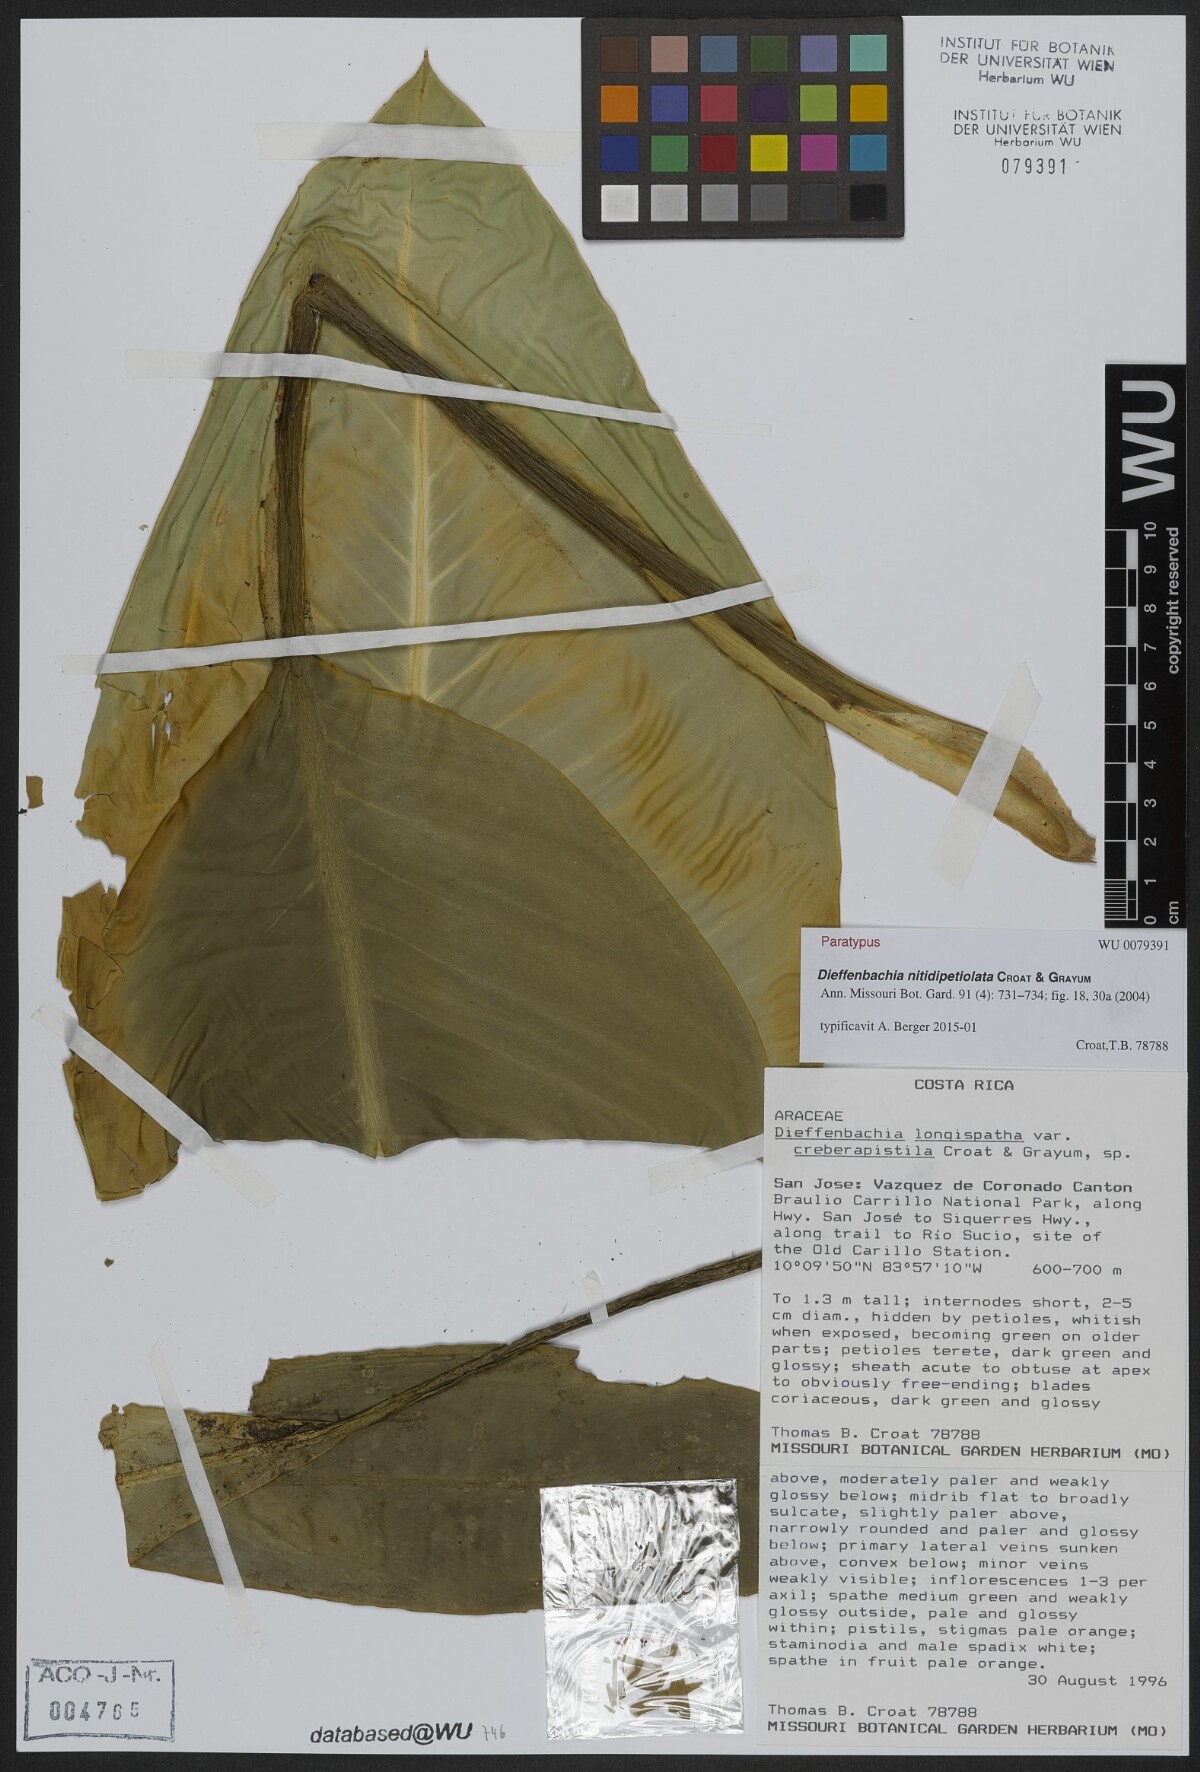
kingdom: Plantae
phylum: Tracheophyta
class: Liliopsida
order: Alismatales
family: Araceae
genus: Dieffenbachia
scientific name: Dieffenbachia nitidipetiolata
